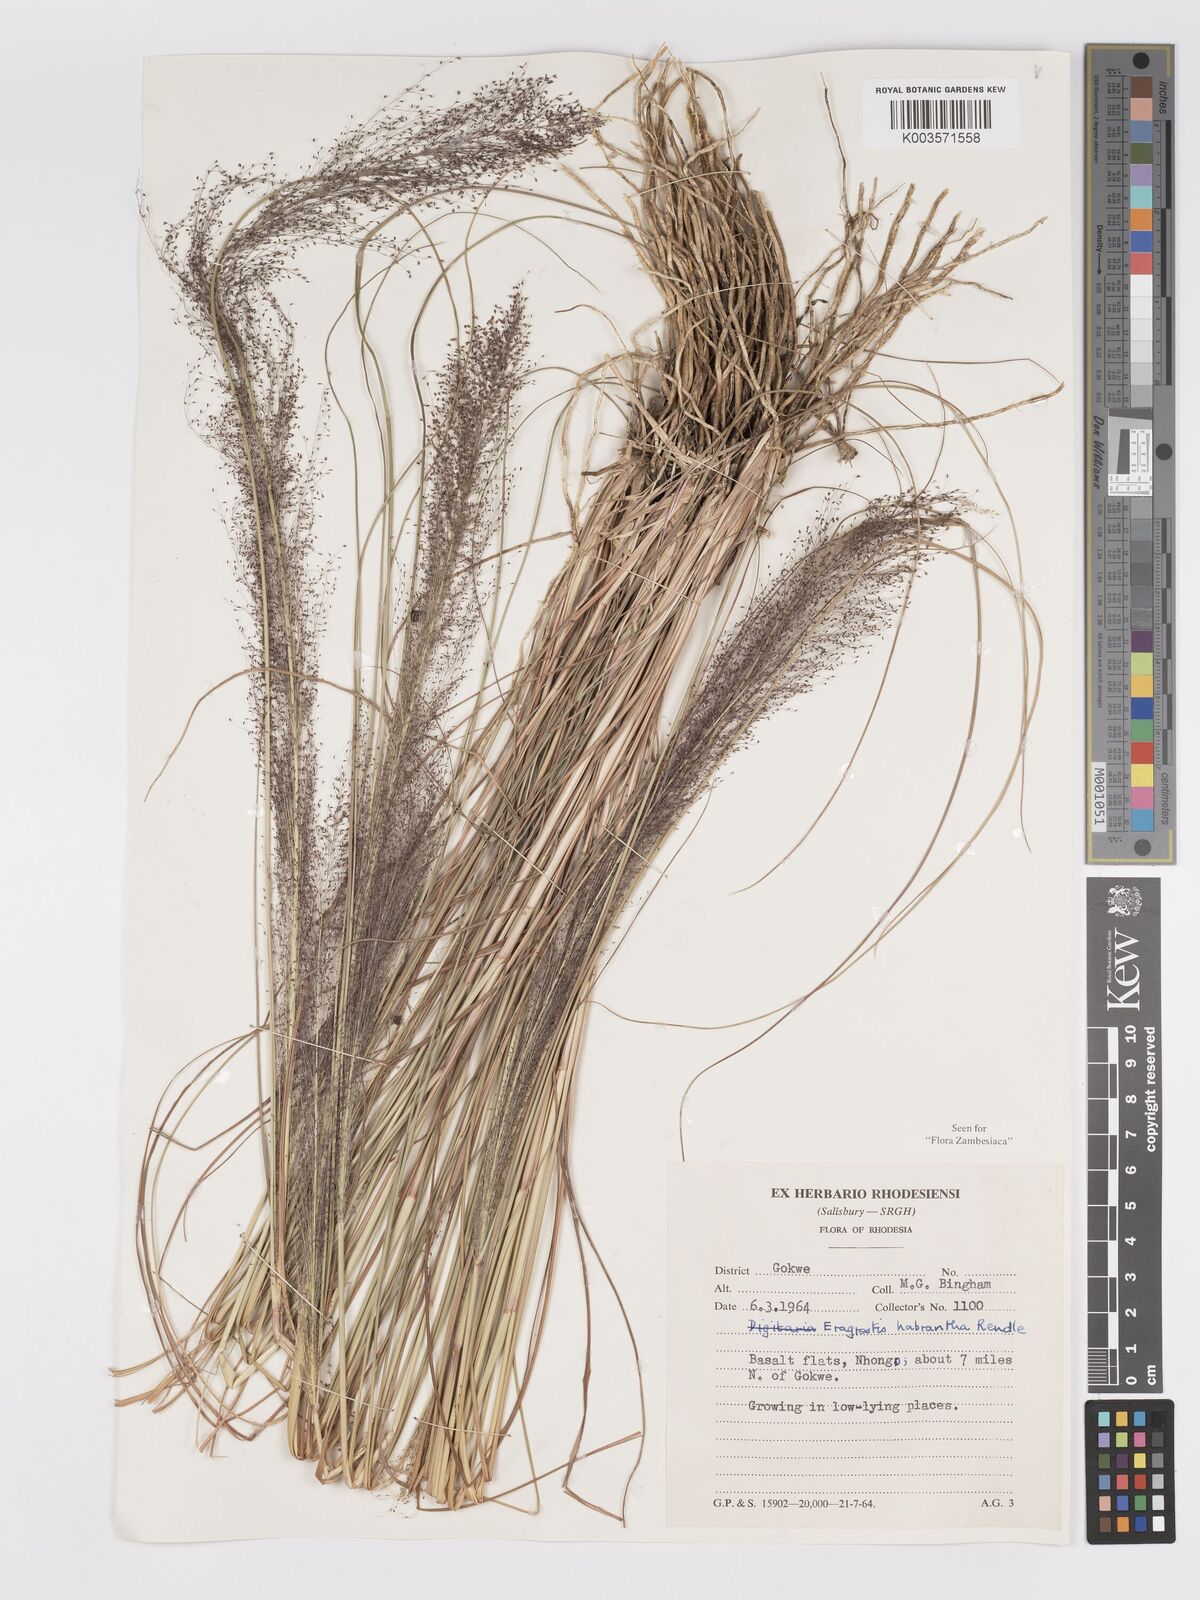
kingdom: Plantae
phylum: Tracheophyta
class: Liliopsida
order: Poales
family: Poaceae
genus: Eragrostis
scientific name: Eragrostis habrantha
